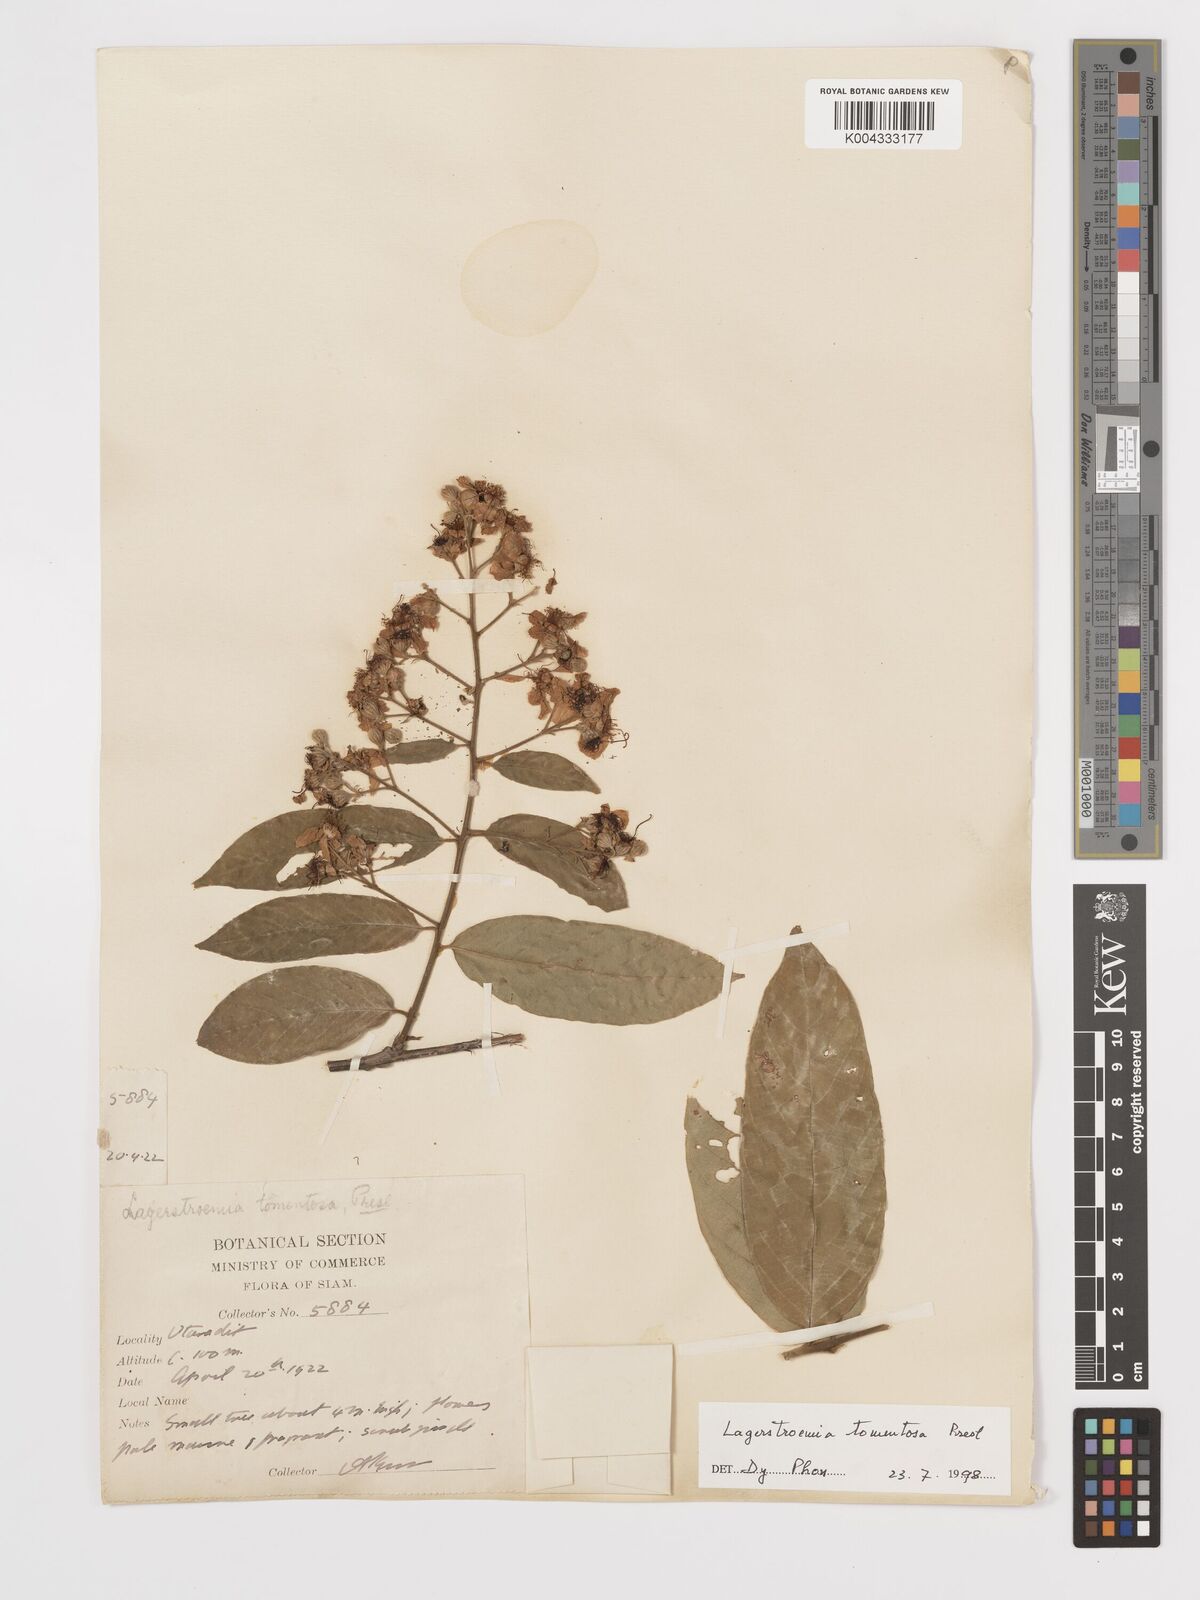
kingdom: Plantae
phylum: Tracheophyta
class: Magnoliopsida
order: Myrtales
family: Lythraceae
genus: Lagerstroemia
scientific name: Lagerstroemia tomentosa
